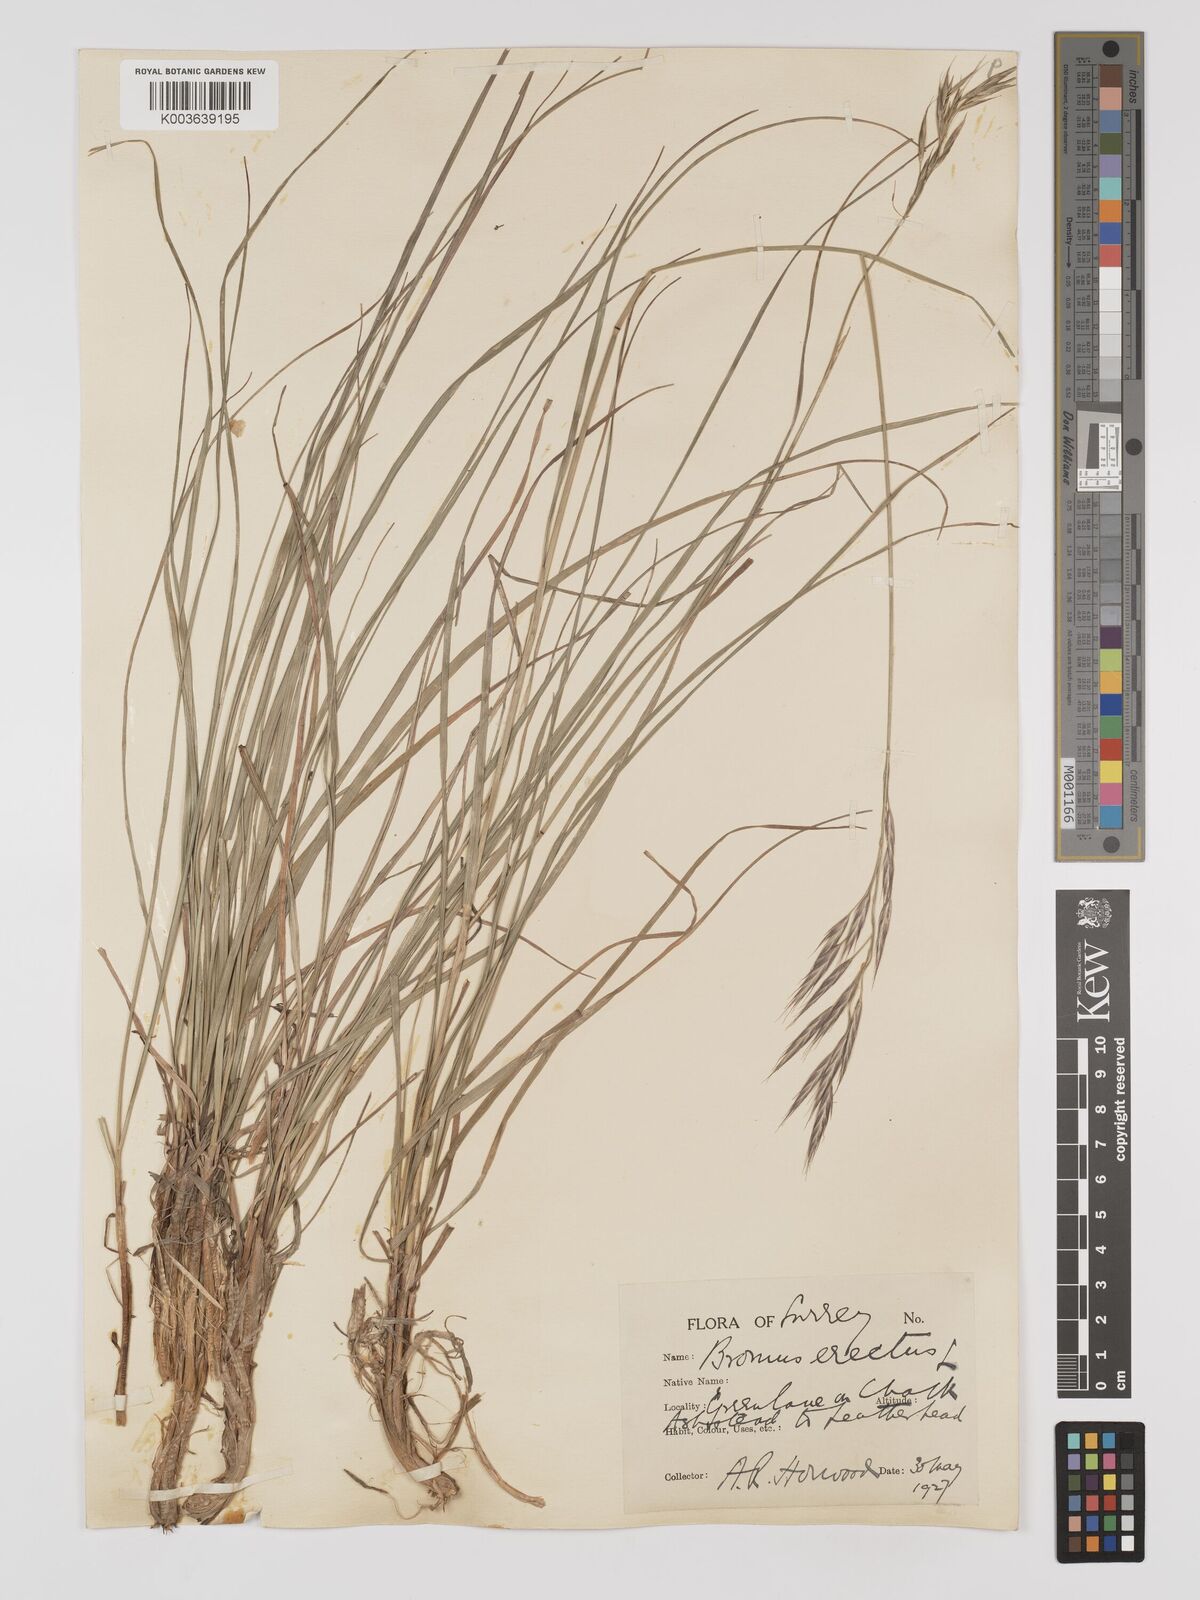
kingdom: Plantae
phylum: Tracheophyta
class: Liliopsida
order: Poales
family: Poaceae
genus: Bromus
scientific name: Bromus erectus
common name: Erect brome
